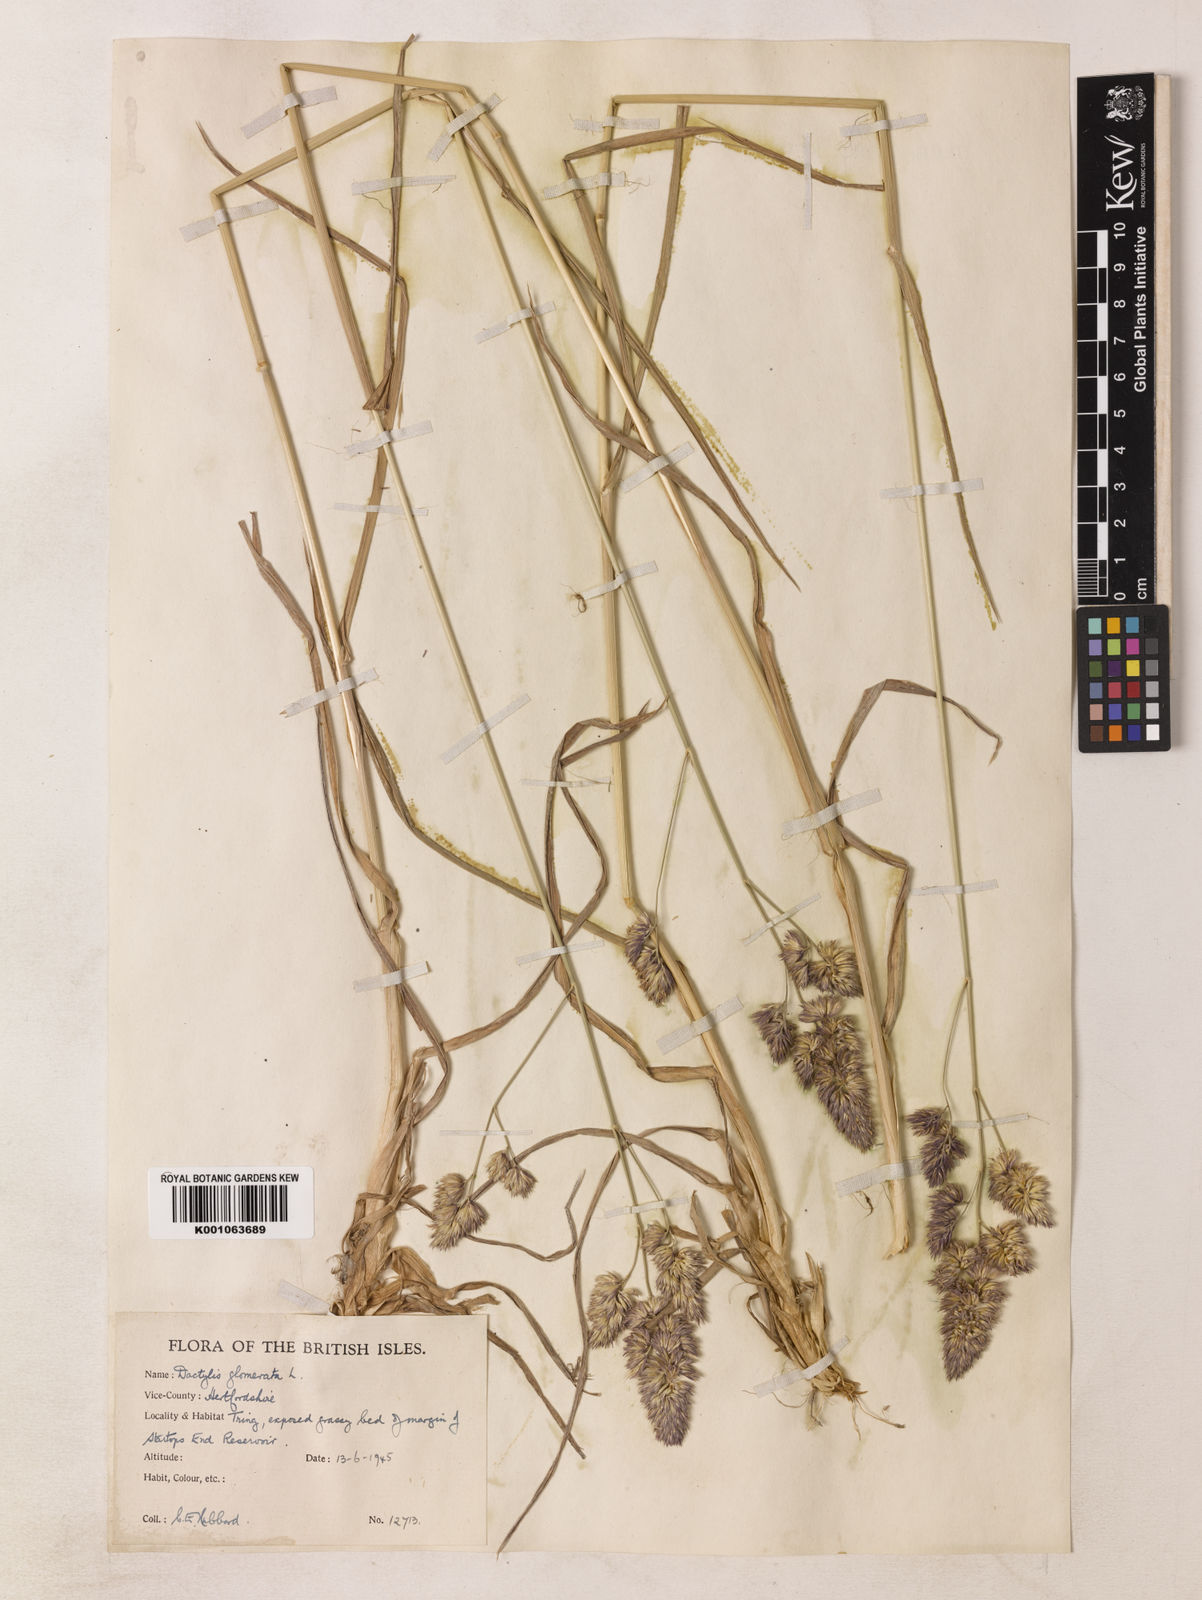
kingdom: Plantae
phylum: Tracheophyta
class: Liliopsida
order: Poales
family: Poaceae
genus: Dactylis
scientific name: Dactylis glomerata
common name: Orchardgrass
